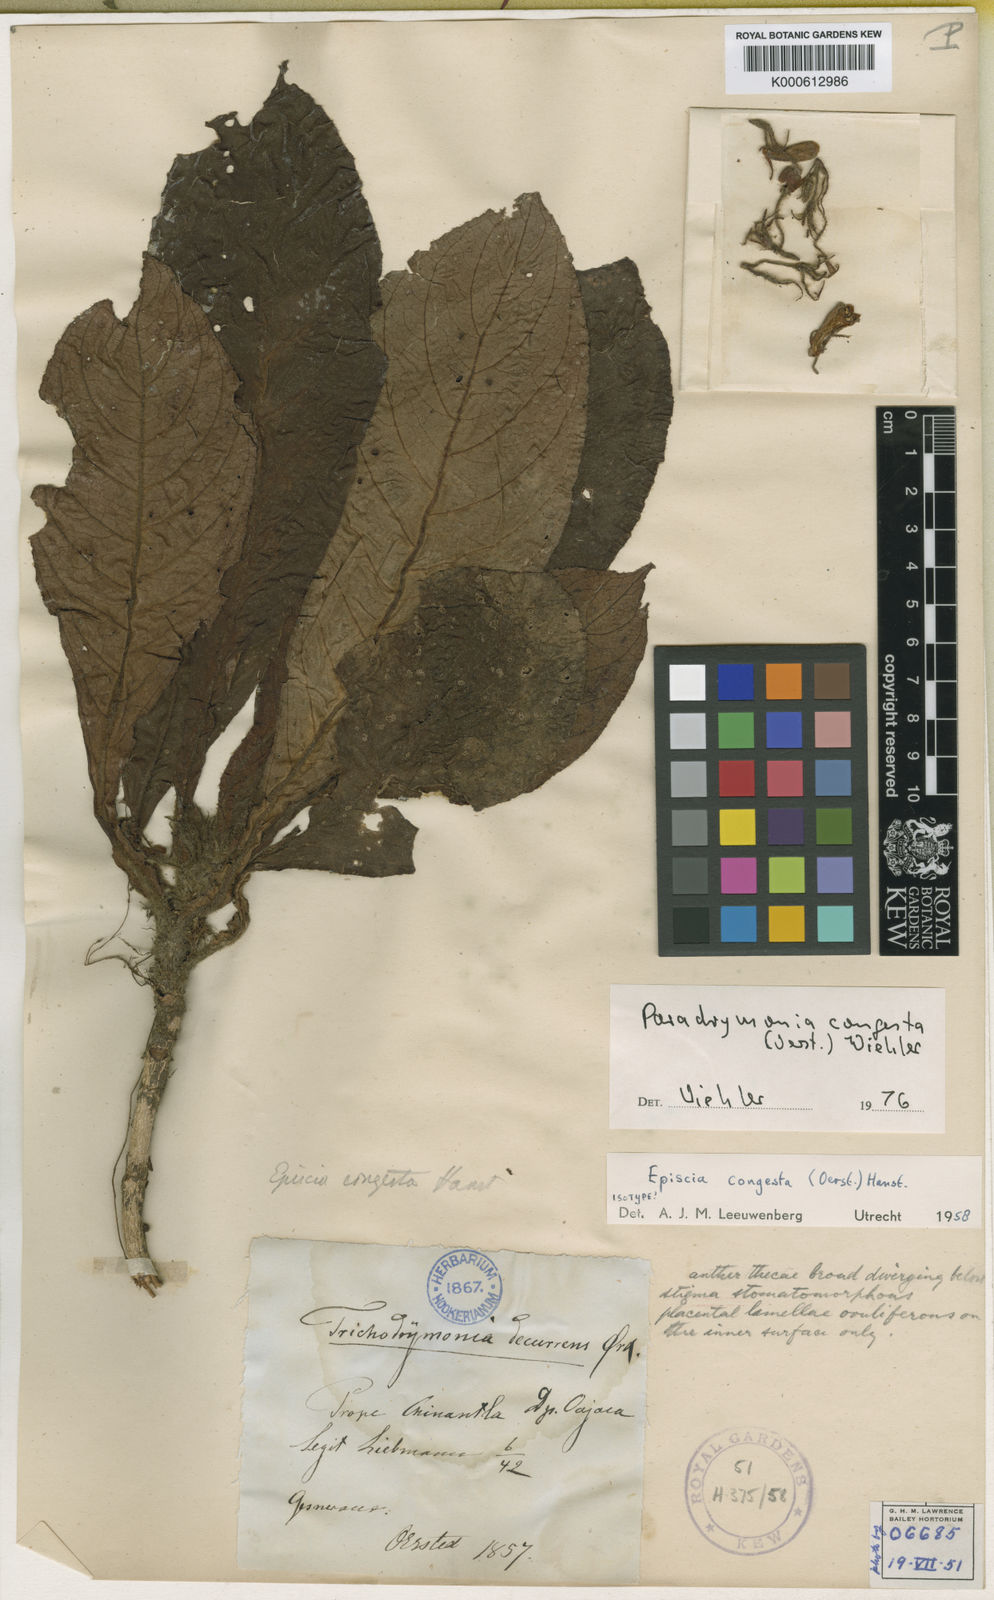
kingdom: Plantae
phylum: Tracheophyta
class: Magnoliopsida
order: Lamiales
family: Gesneriaceae
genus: Trichodrymonia
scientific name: Trichodrymonia congesta
